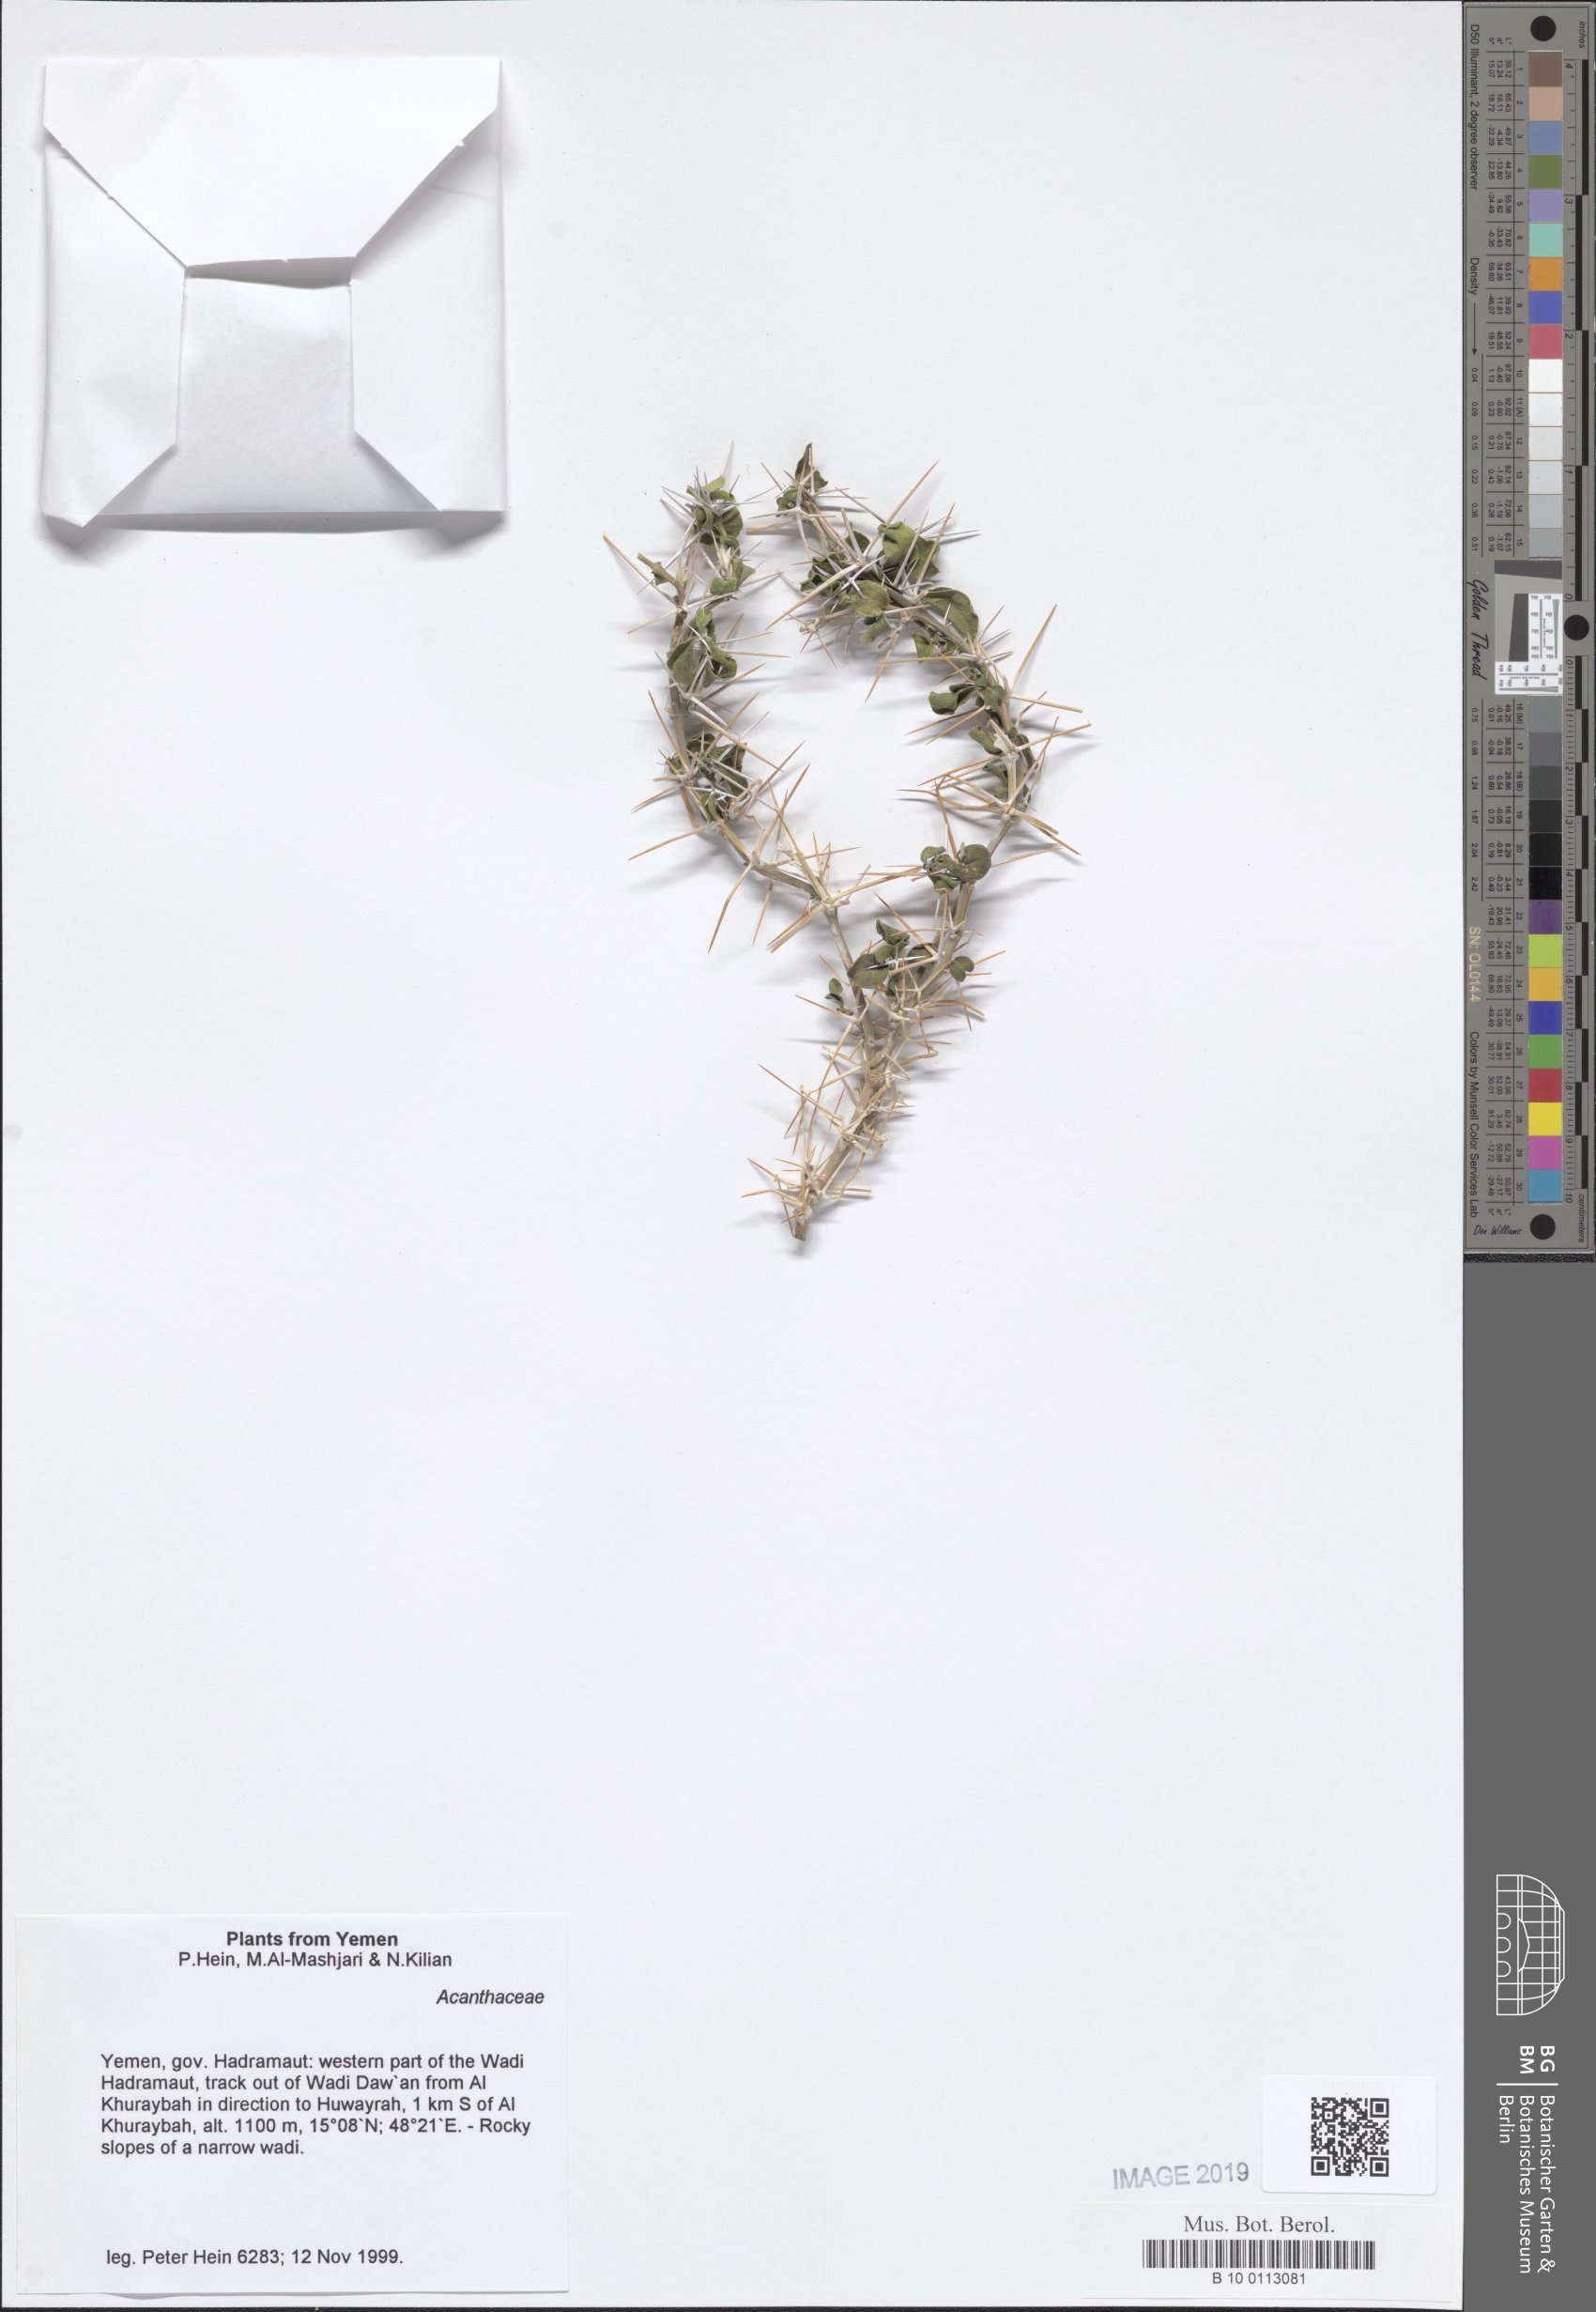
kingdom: Plantae
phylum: Tracheophyta
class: Magnoliopsida
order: Lamiales
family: Acanthaceae
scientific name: Acanthaceae
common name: Acanthaceae
